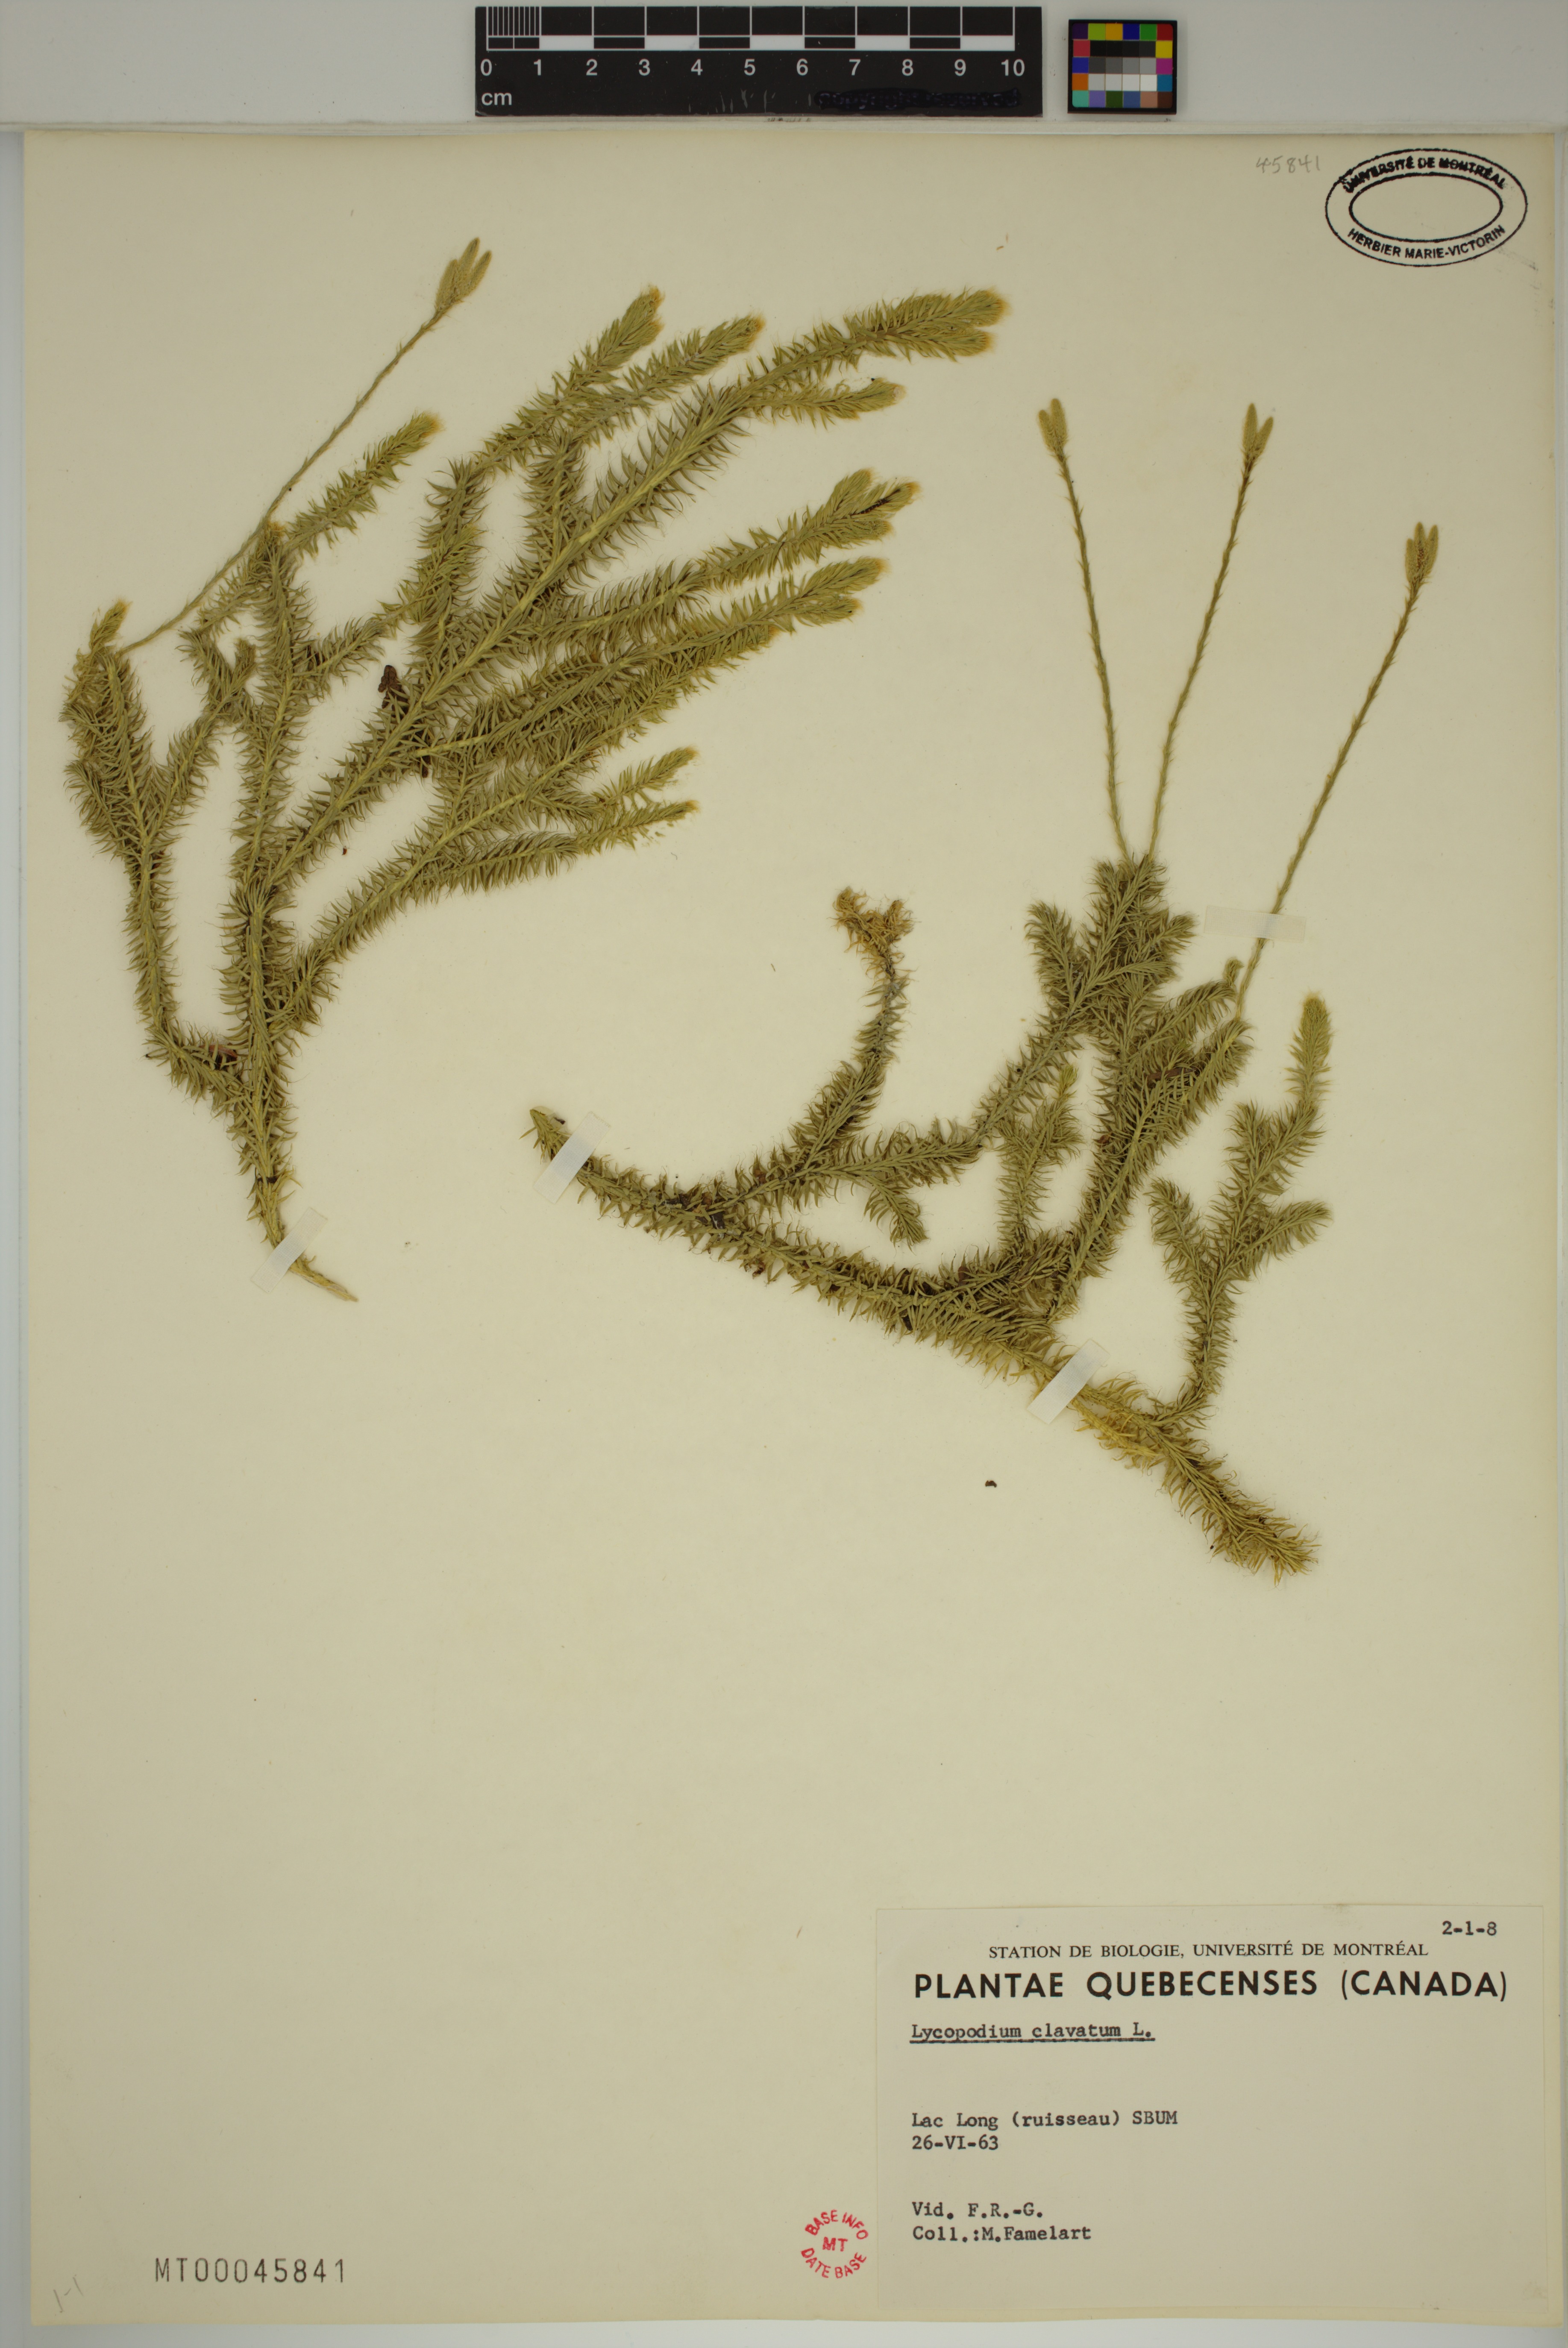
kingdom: Plantae
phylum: Tracheophyta
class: Lycopodiopsida
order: Lycopodiales
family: Lycopodiaceae
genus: Lycopodium
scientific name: Lycopodium clavatum
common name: Stag's-horn clubmoss
